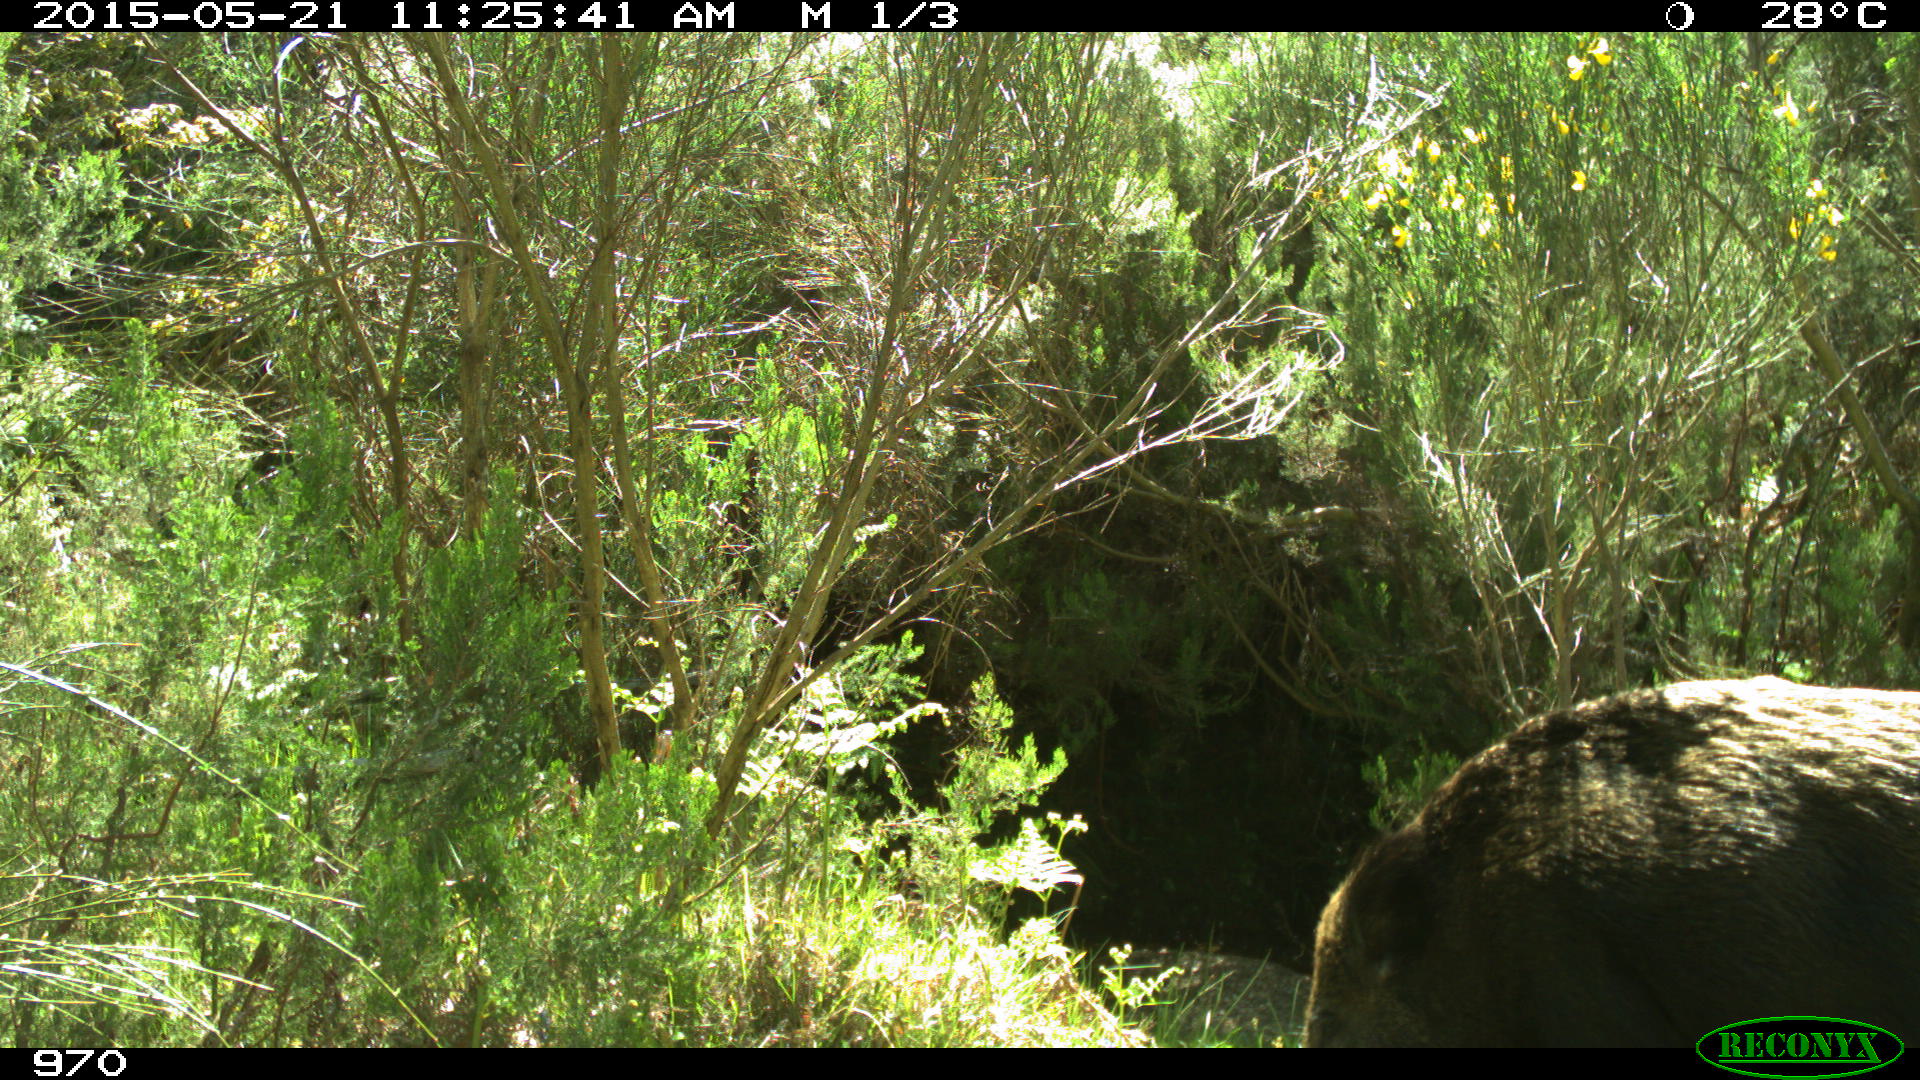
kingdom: Animalia
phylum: Chordata
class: Mammalia
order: Artiodactyla
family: Suidae
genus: Sus
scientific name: Sus scrofa
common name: Wild boar
